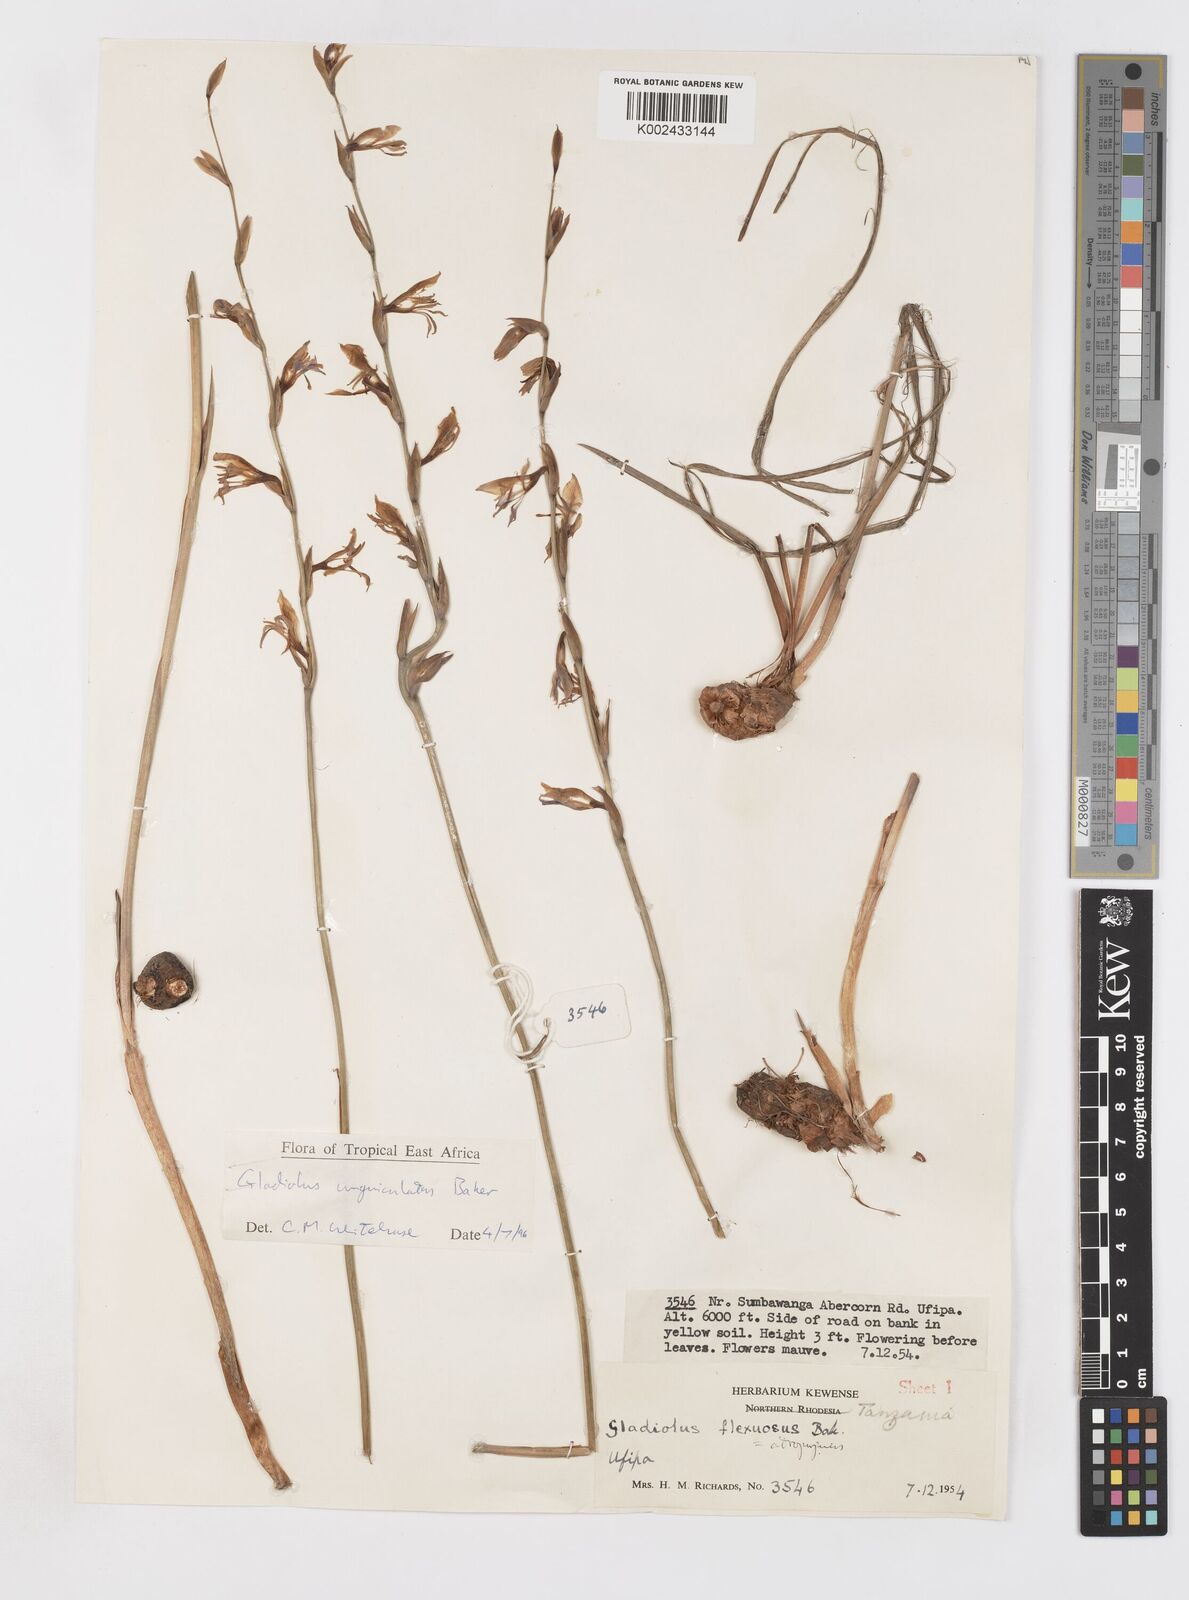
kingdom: Plantae
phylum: Tracheophyta
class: Liliopsida
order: Asparagales
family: Iridaceae
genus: Gladiolus
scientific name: Gladiolus unguiculatus
